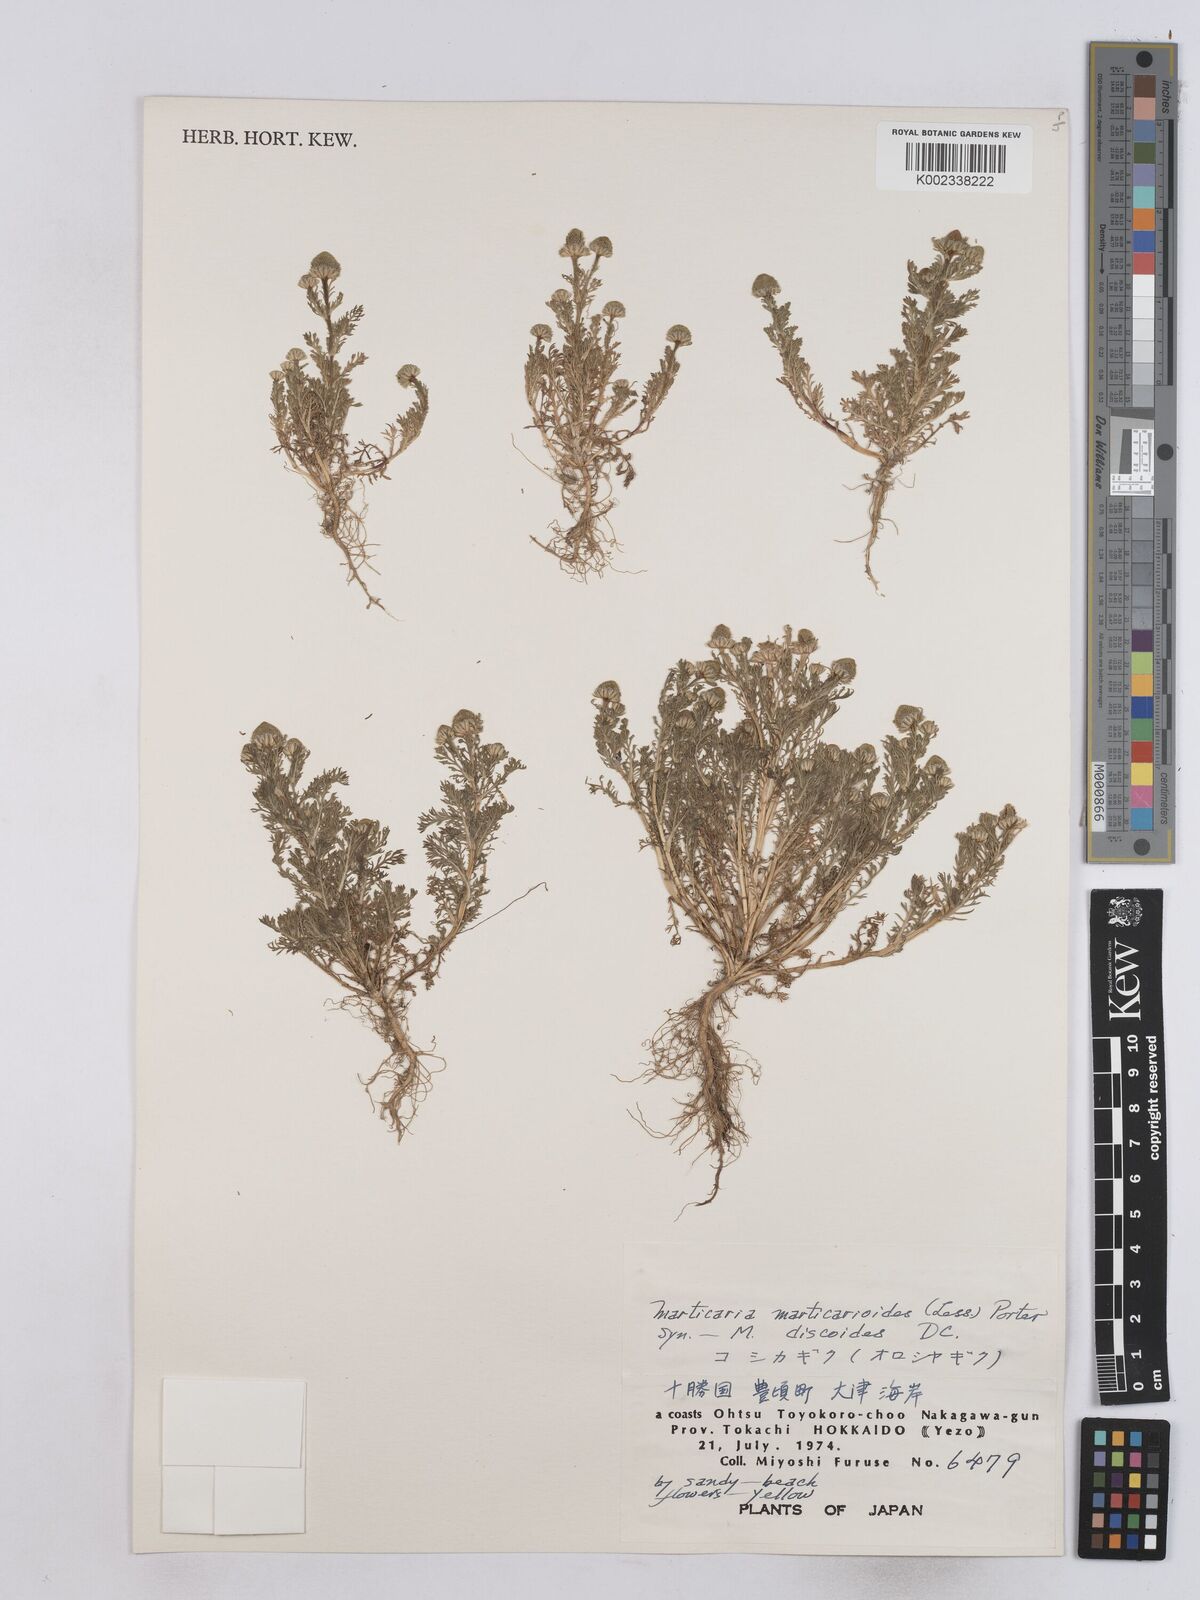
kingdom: Plantae
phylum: Tracheophyta
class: Magnoliopsida
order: Asterales
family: Asteraceae
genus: Matricaria
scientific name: Matricaria discoidea
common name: Disc mayweed
